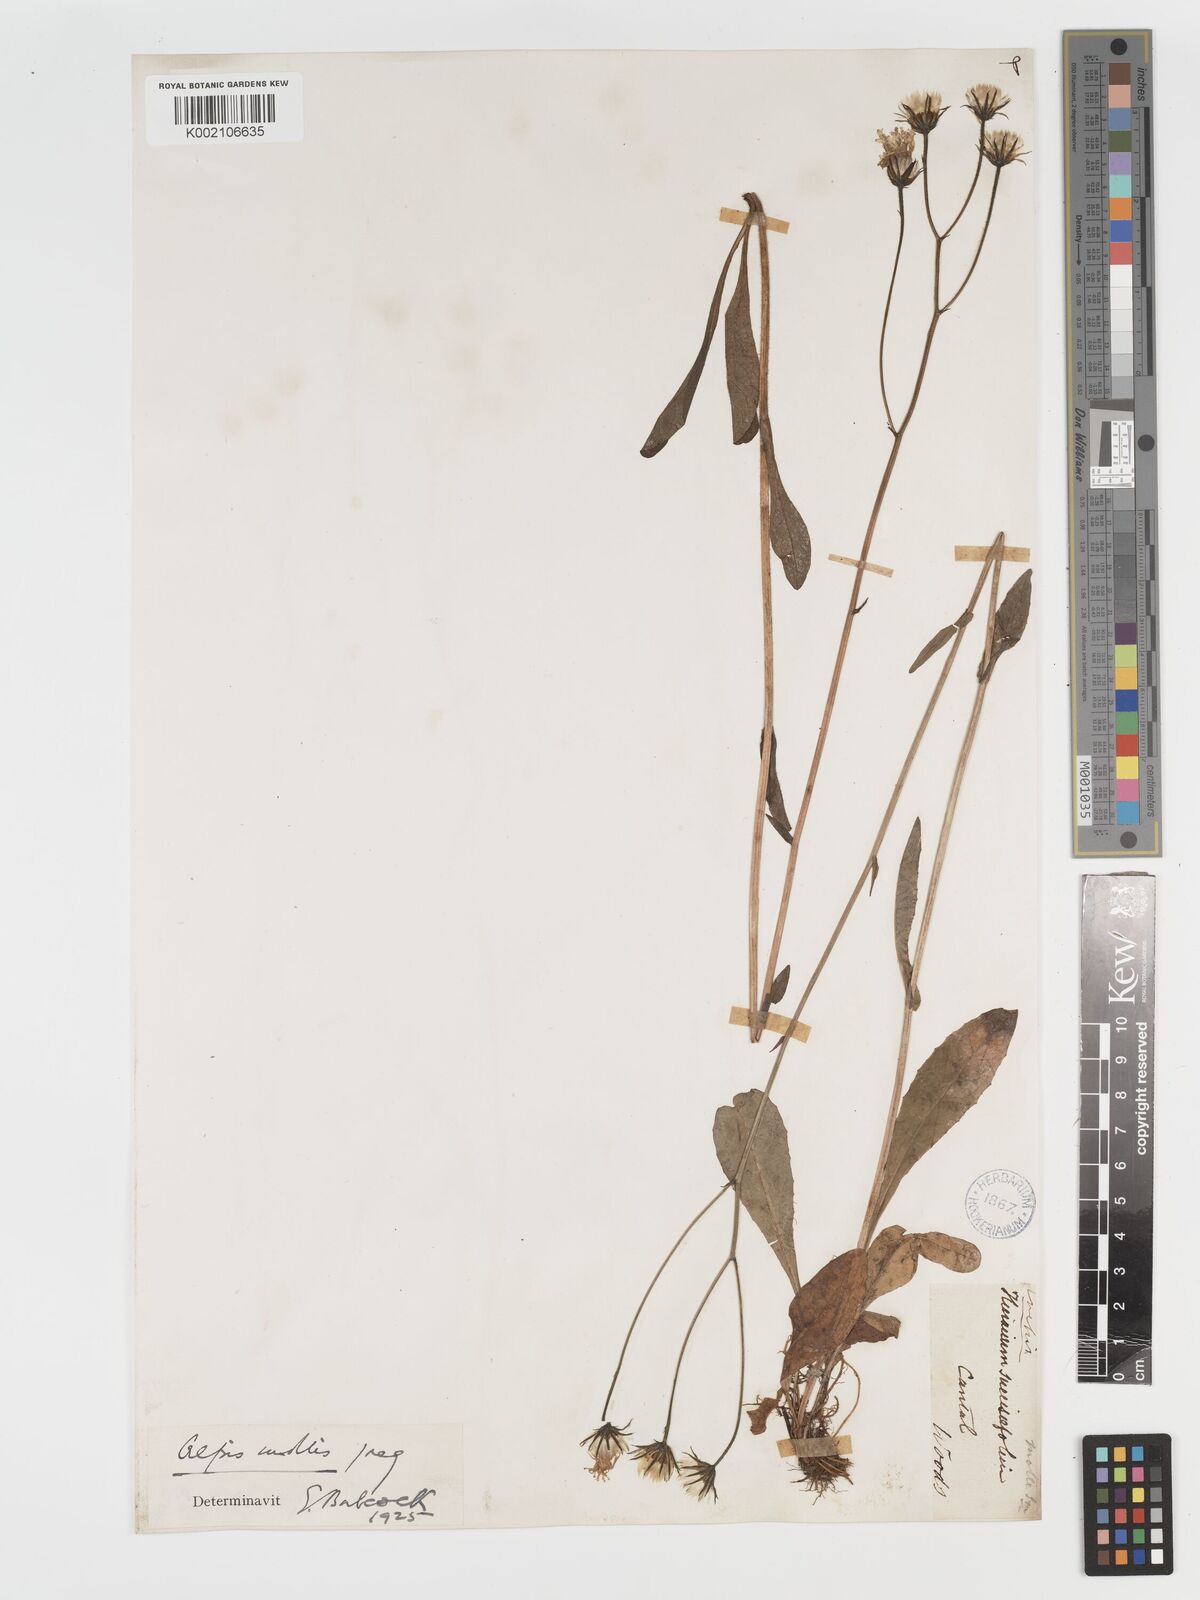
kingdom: Plantae
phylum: Tracheophyta
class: Magnoliopsida
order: Asterales
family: Asteraceae
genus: Crepis
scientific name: Crepis mollis
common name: Northern hawk's-beard
